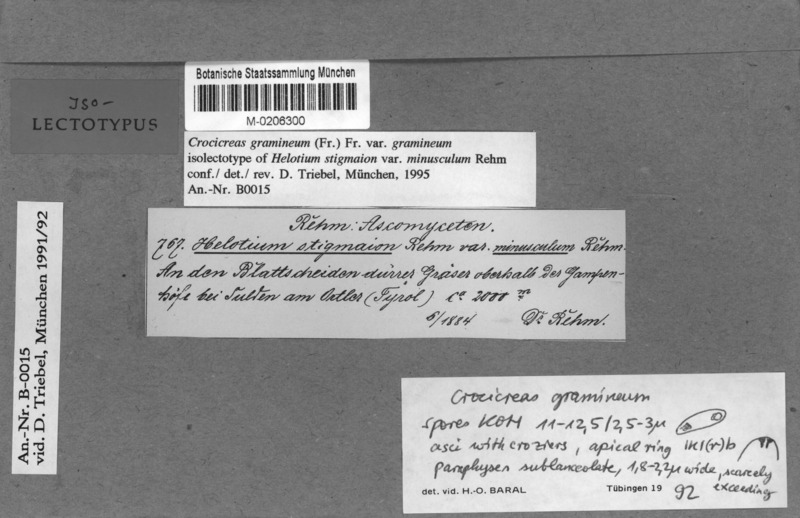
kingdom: Fungi
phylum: Ascomycota
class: Leotiomycetes
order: Helotiales
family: Helotiaceae
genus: Crocicreas
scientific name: Crocicreas gramineum
